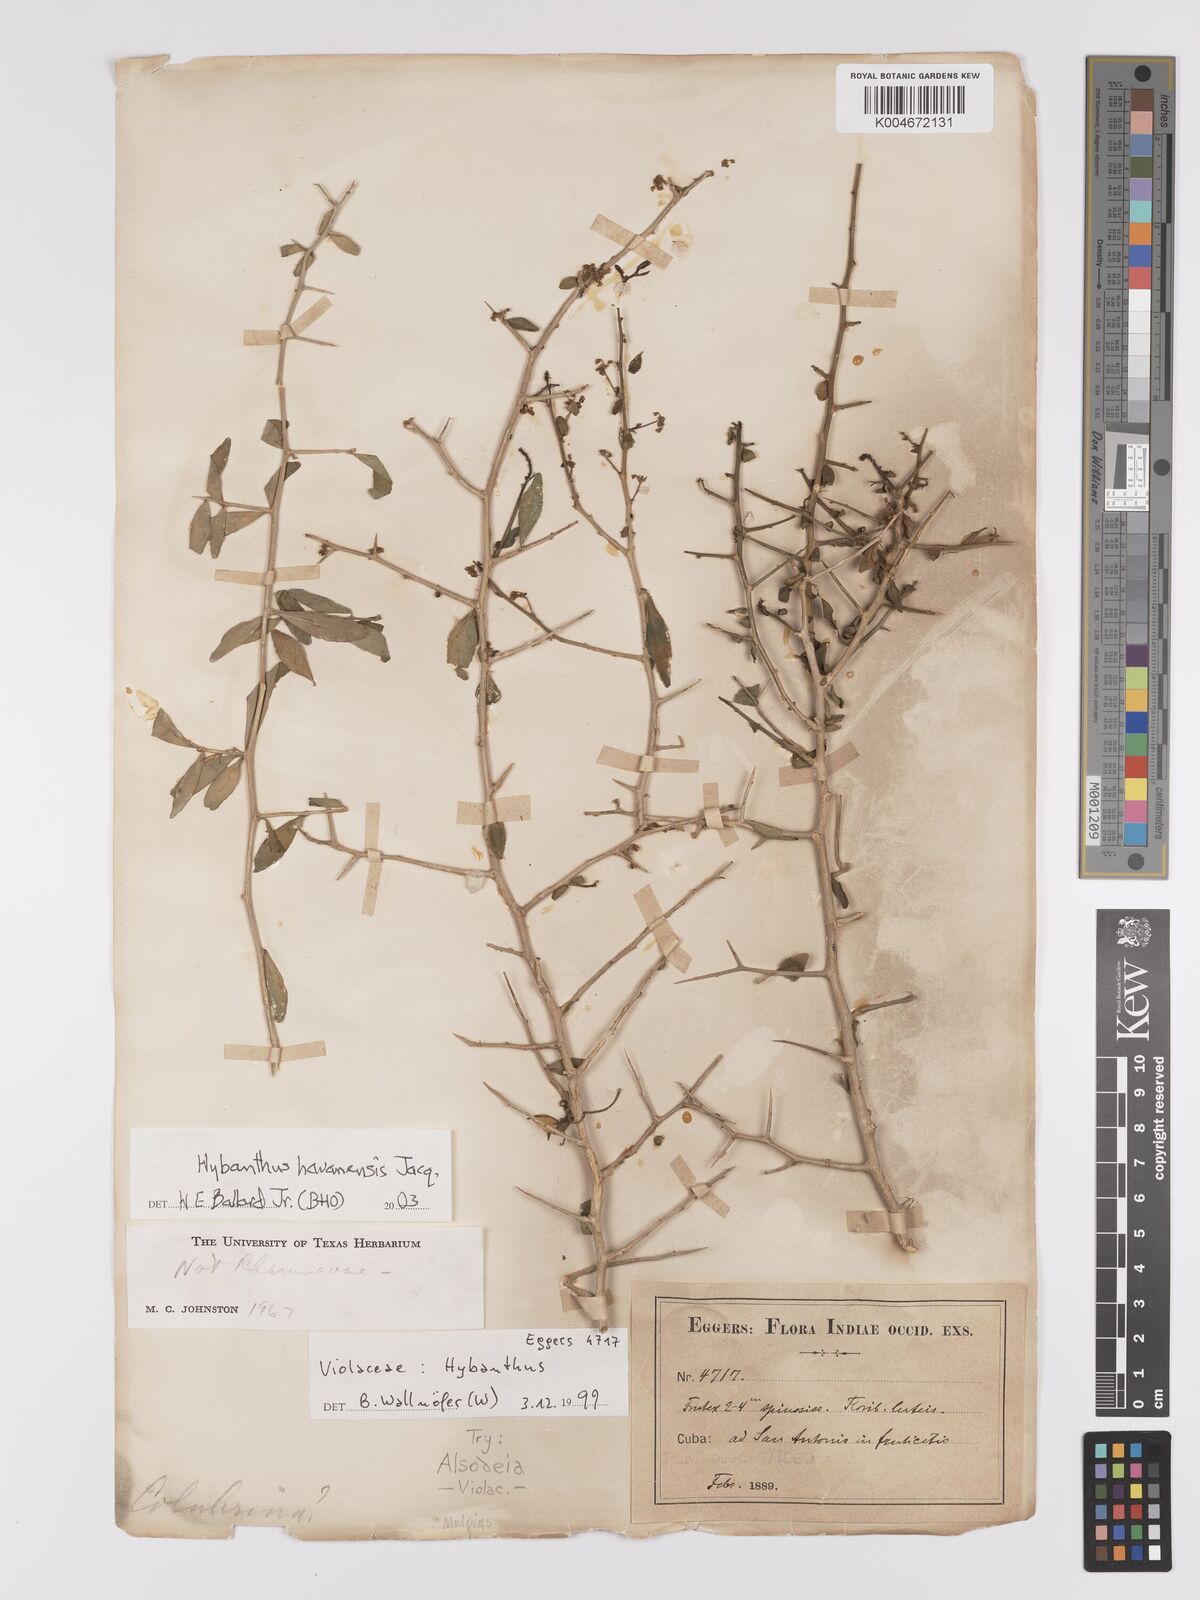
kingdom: Plantae
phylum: Tracheophyta
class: Magnoliopsida
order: Malpighiales
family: Violaceae
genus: Hybanthus
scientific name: Hybanthus havanensis
